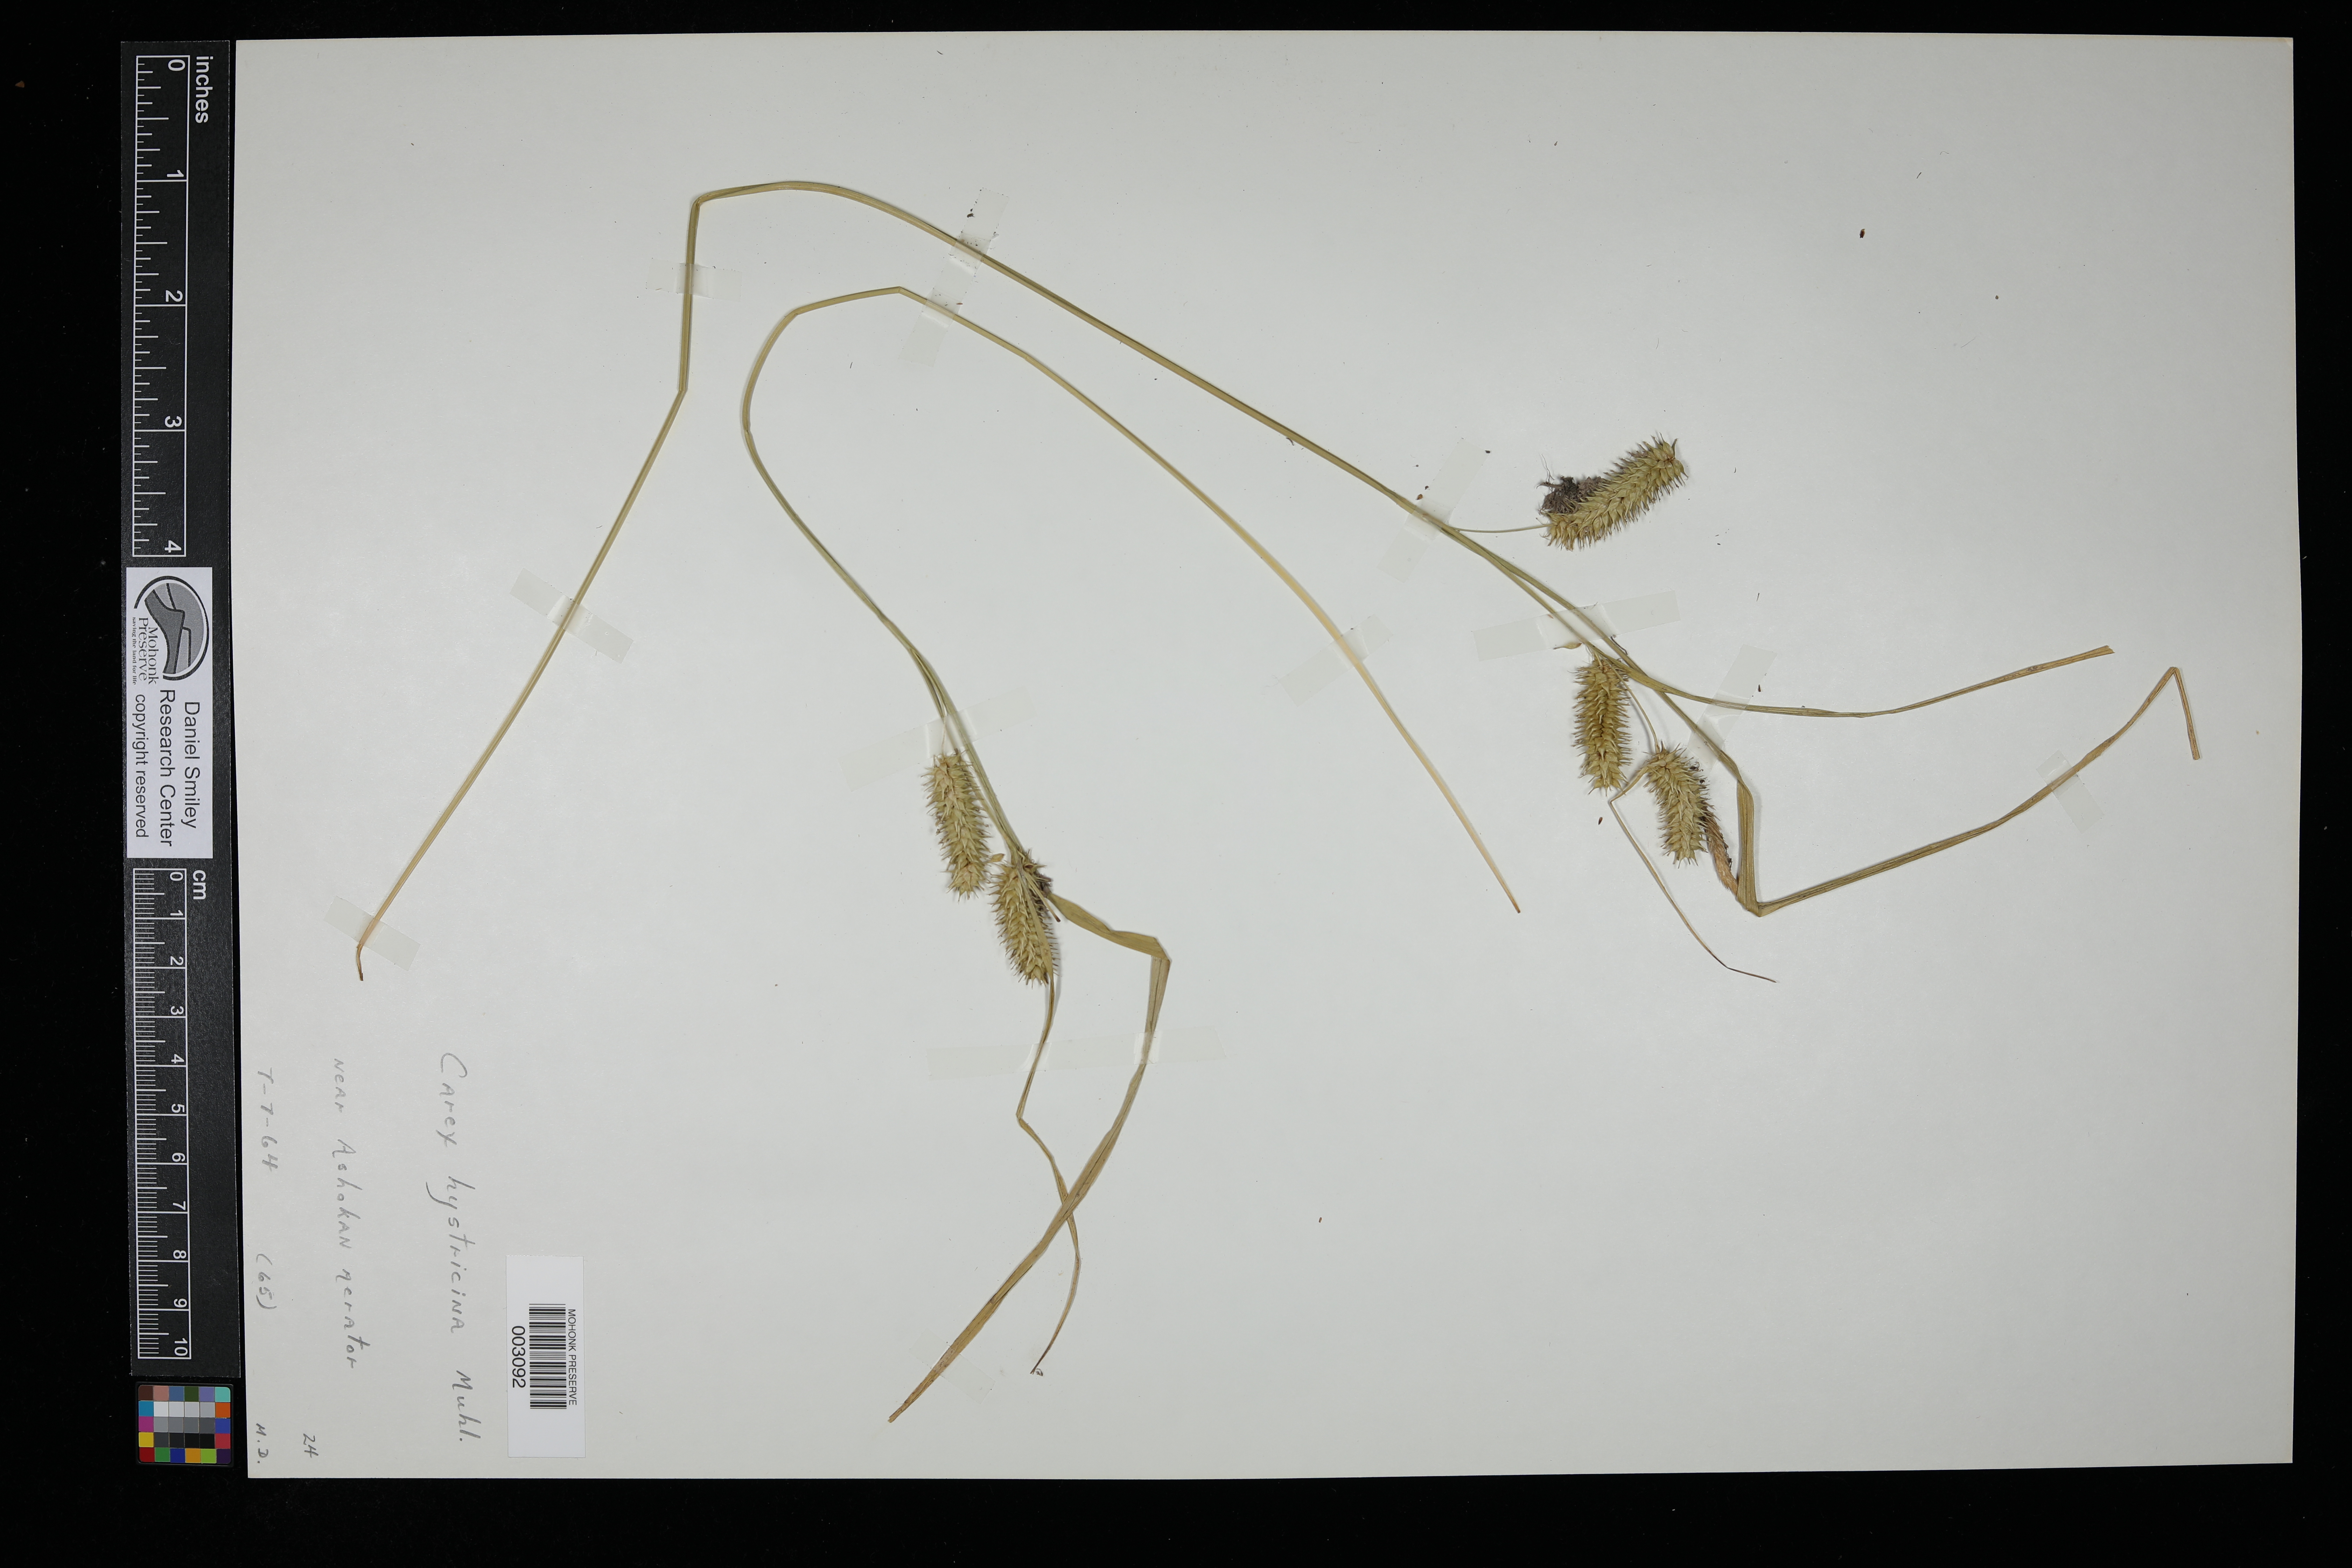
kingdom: Plantae
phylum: Tracheophyta
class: Liliopsida
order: Poales
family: Cyperaceae
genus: Carex
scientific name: Carex hystericina
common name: Bottlebrush sedge
